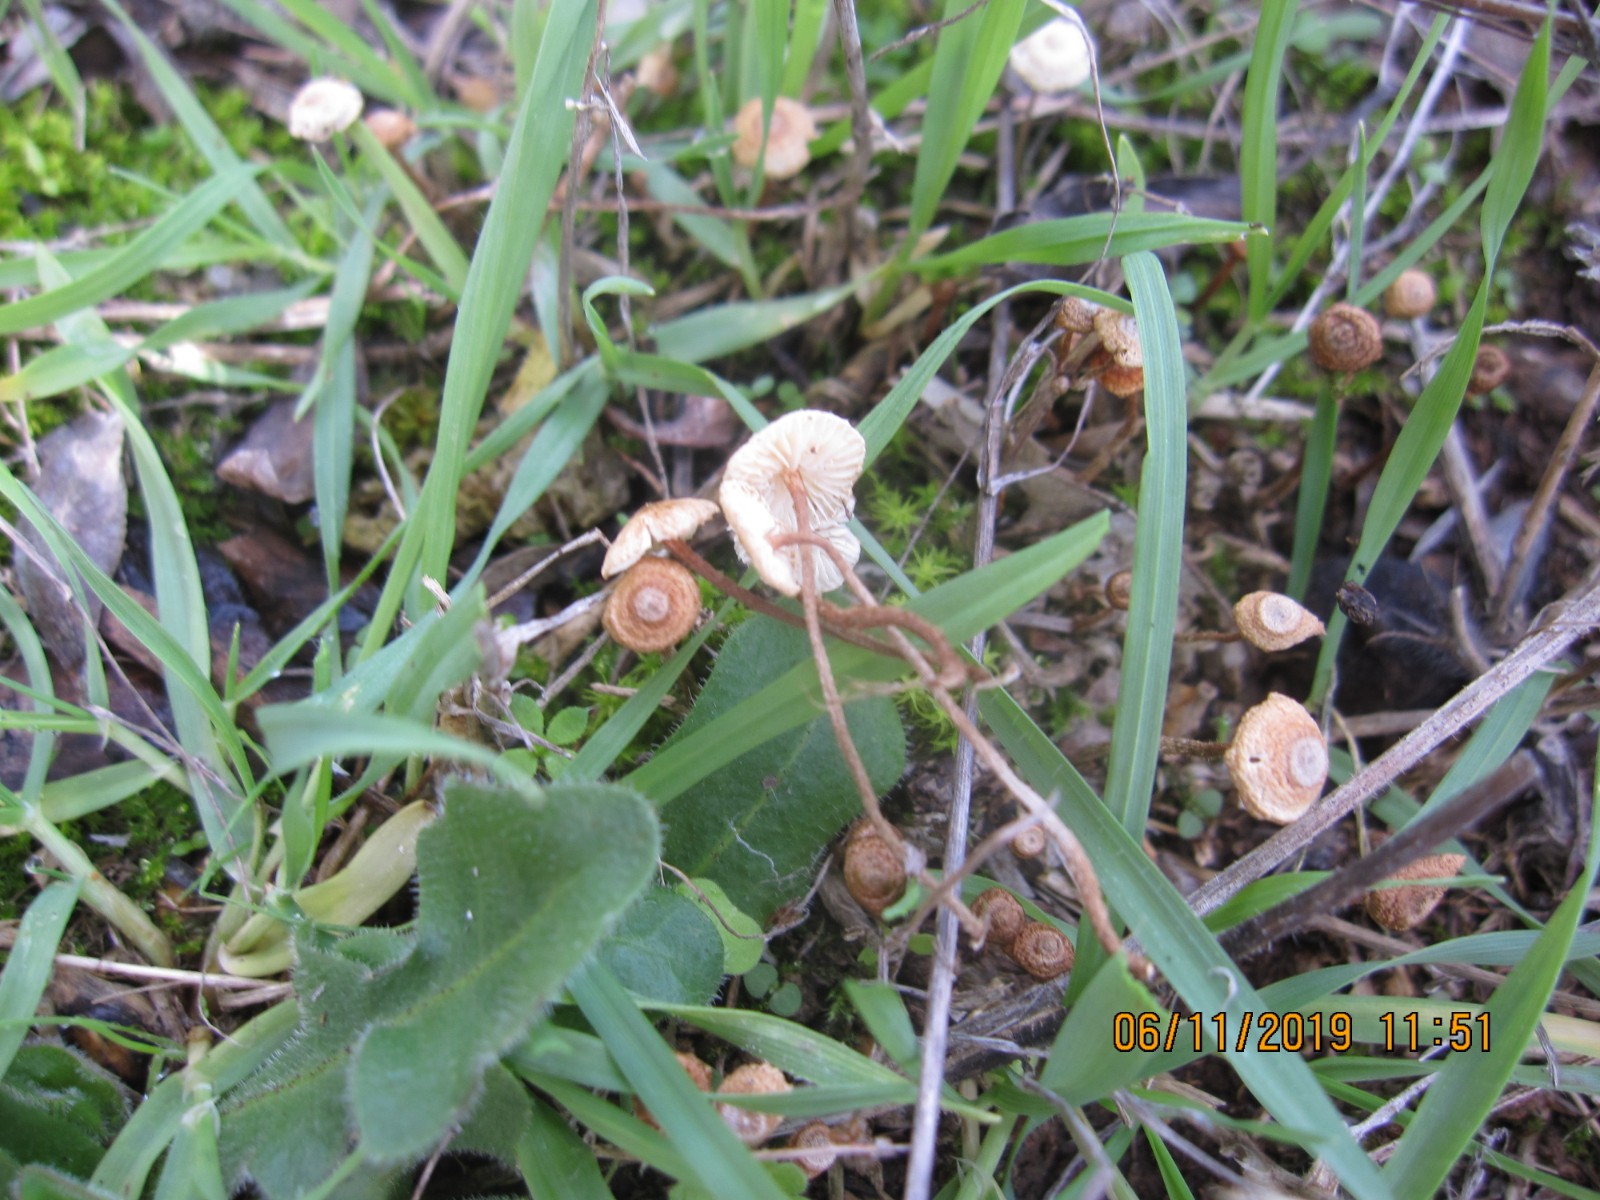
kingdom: Fungi
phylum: Basidiomycota
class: Agaricomycetes
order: Agaricales
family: Marasmiaceae
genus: Crinipellis
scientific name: Crinipellis scabella
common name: børstefod
